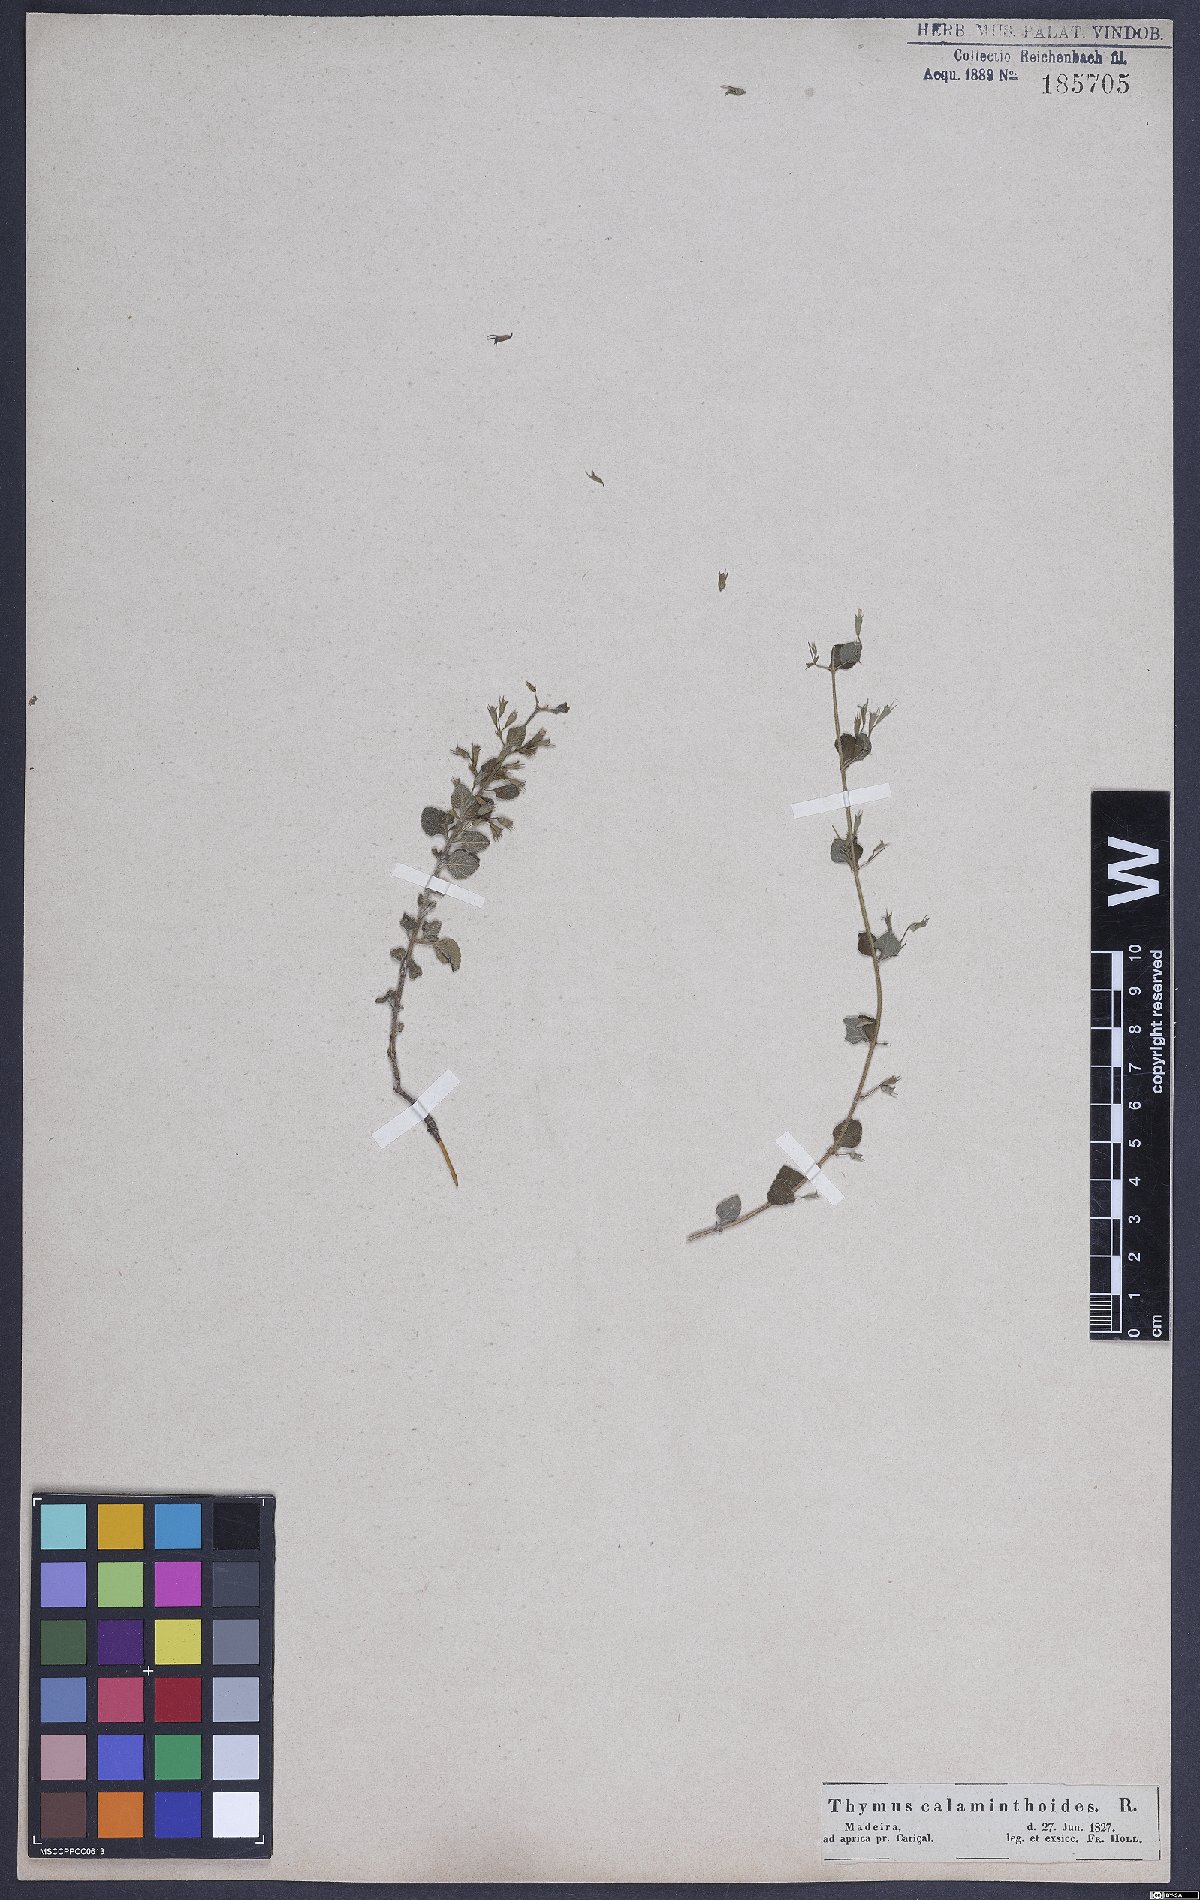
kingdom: Plantae
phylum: Tracheophyta
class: Magnoliopsida
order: Lamiales
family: Lamiaceae
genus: Calamintha
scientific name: Calamintha
